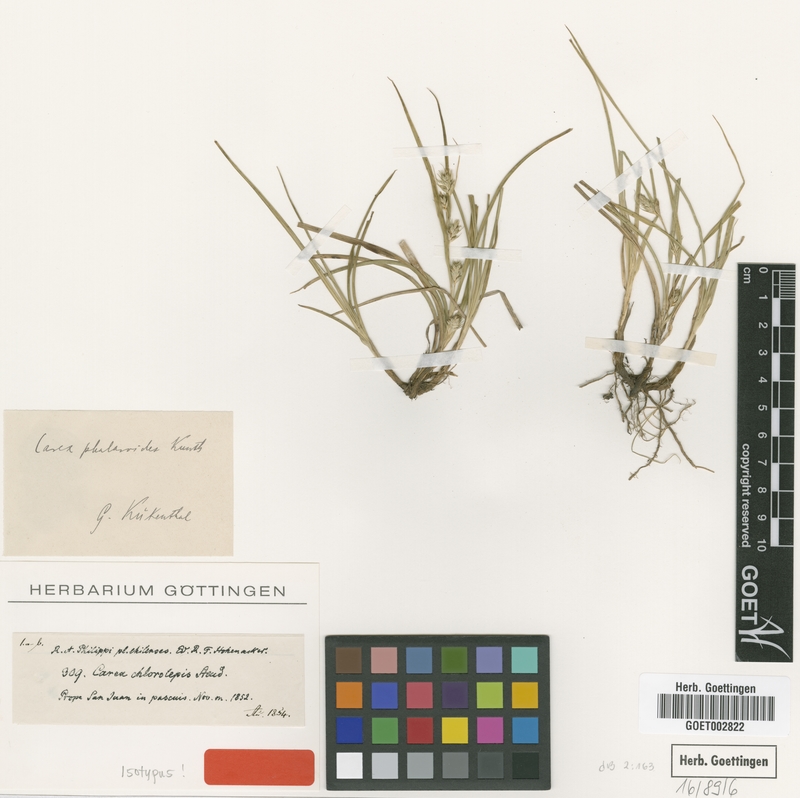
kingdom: Plantae
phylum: Tracheophyta
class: Liliopsida
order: Poales
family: Cyperaceae
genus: Carex
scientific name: Carex phalaroides
